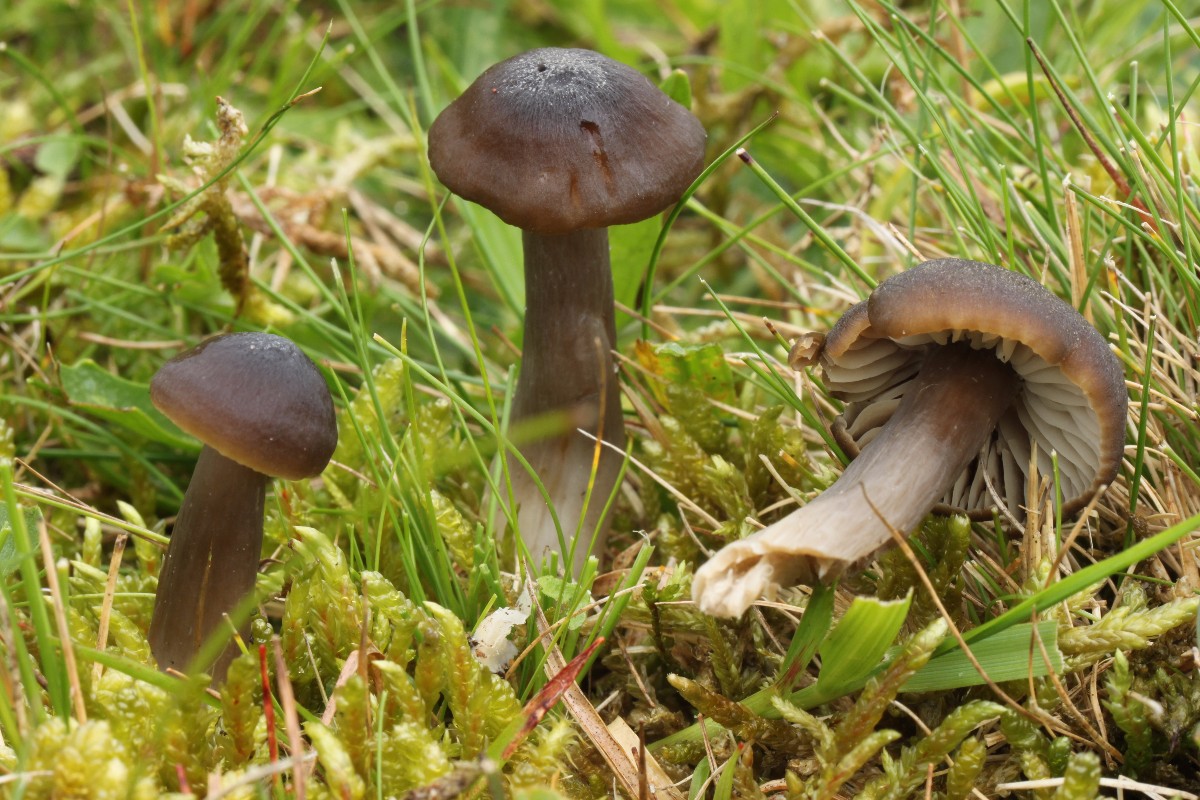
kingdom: Fungi
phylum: Basidiomycota
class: Agaricomycetes
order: Agaricales
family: Hygrophoraceae
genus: Neohygrocybe
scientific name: Neohygrocybe nitrata
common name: stinkende vokshat
